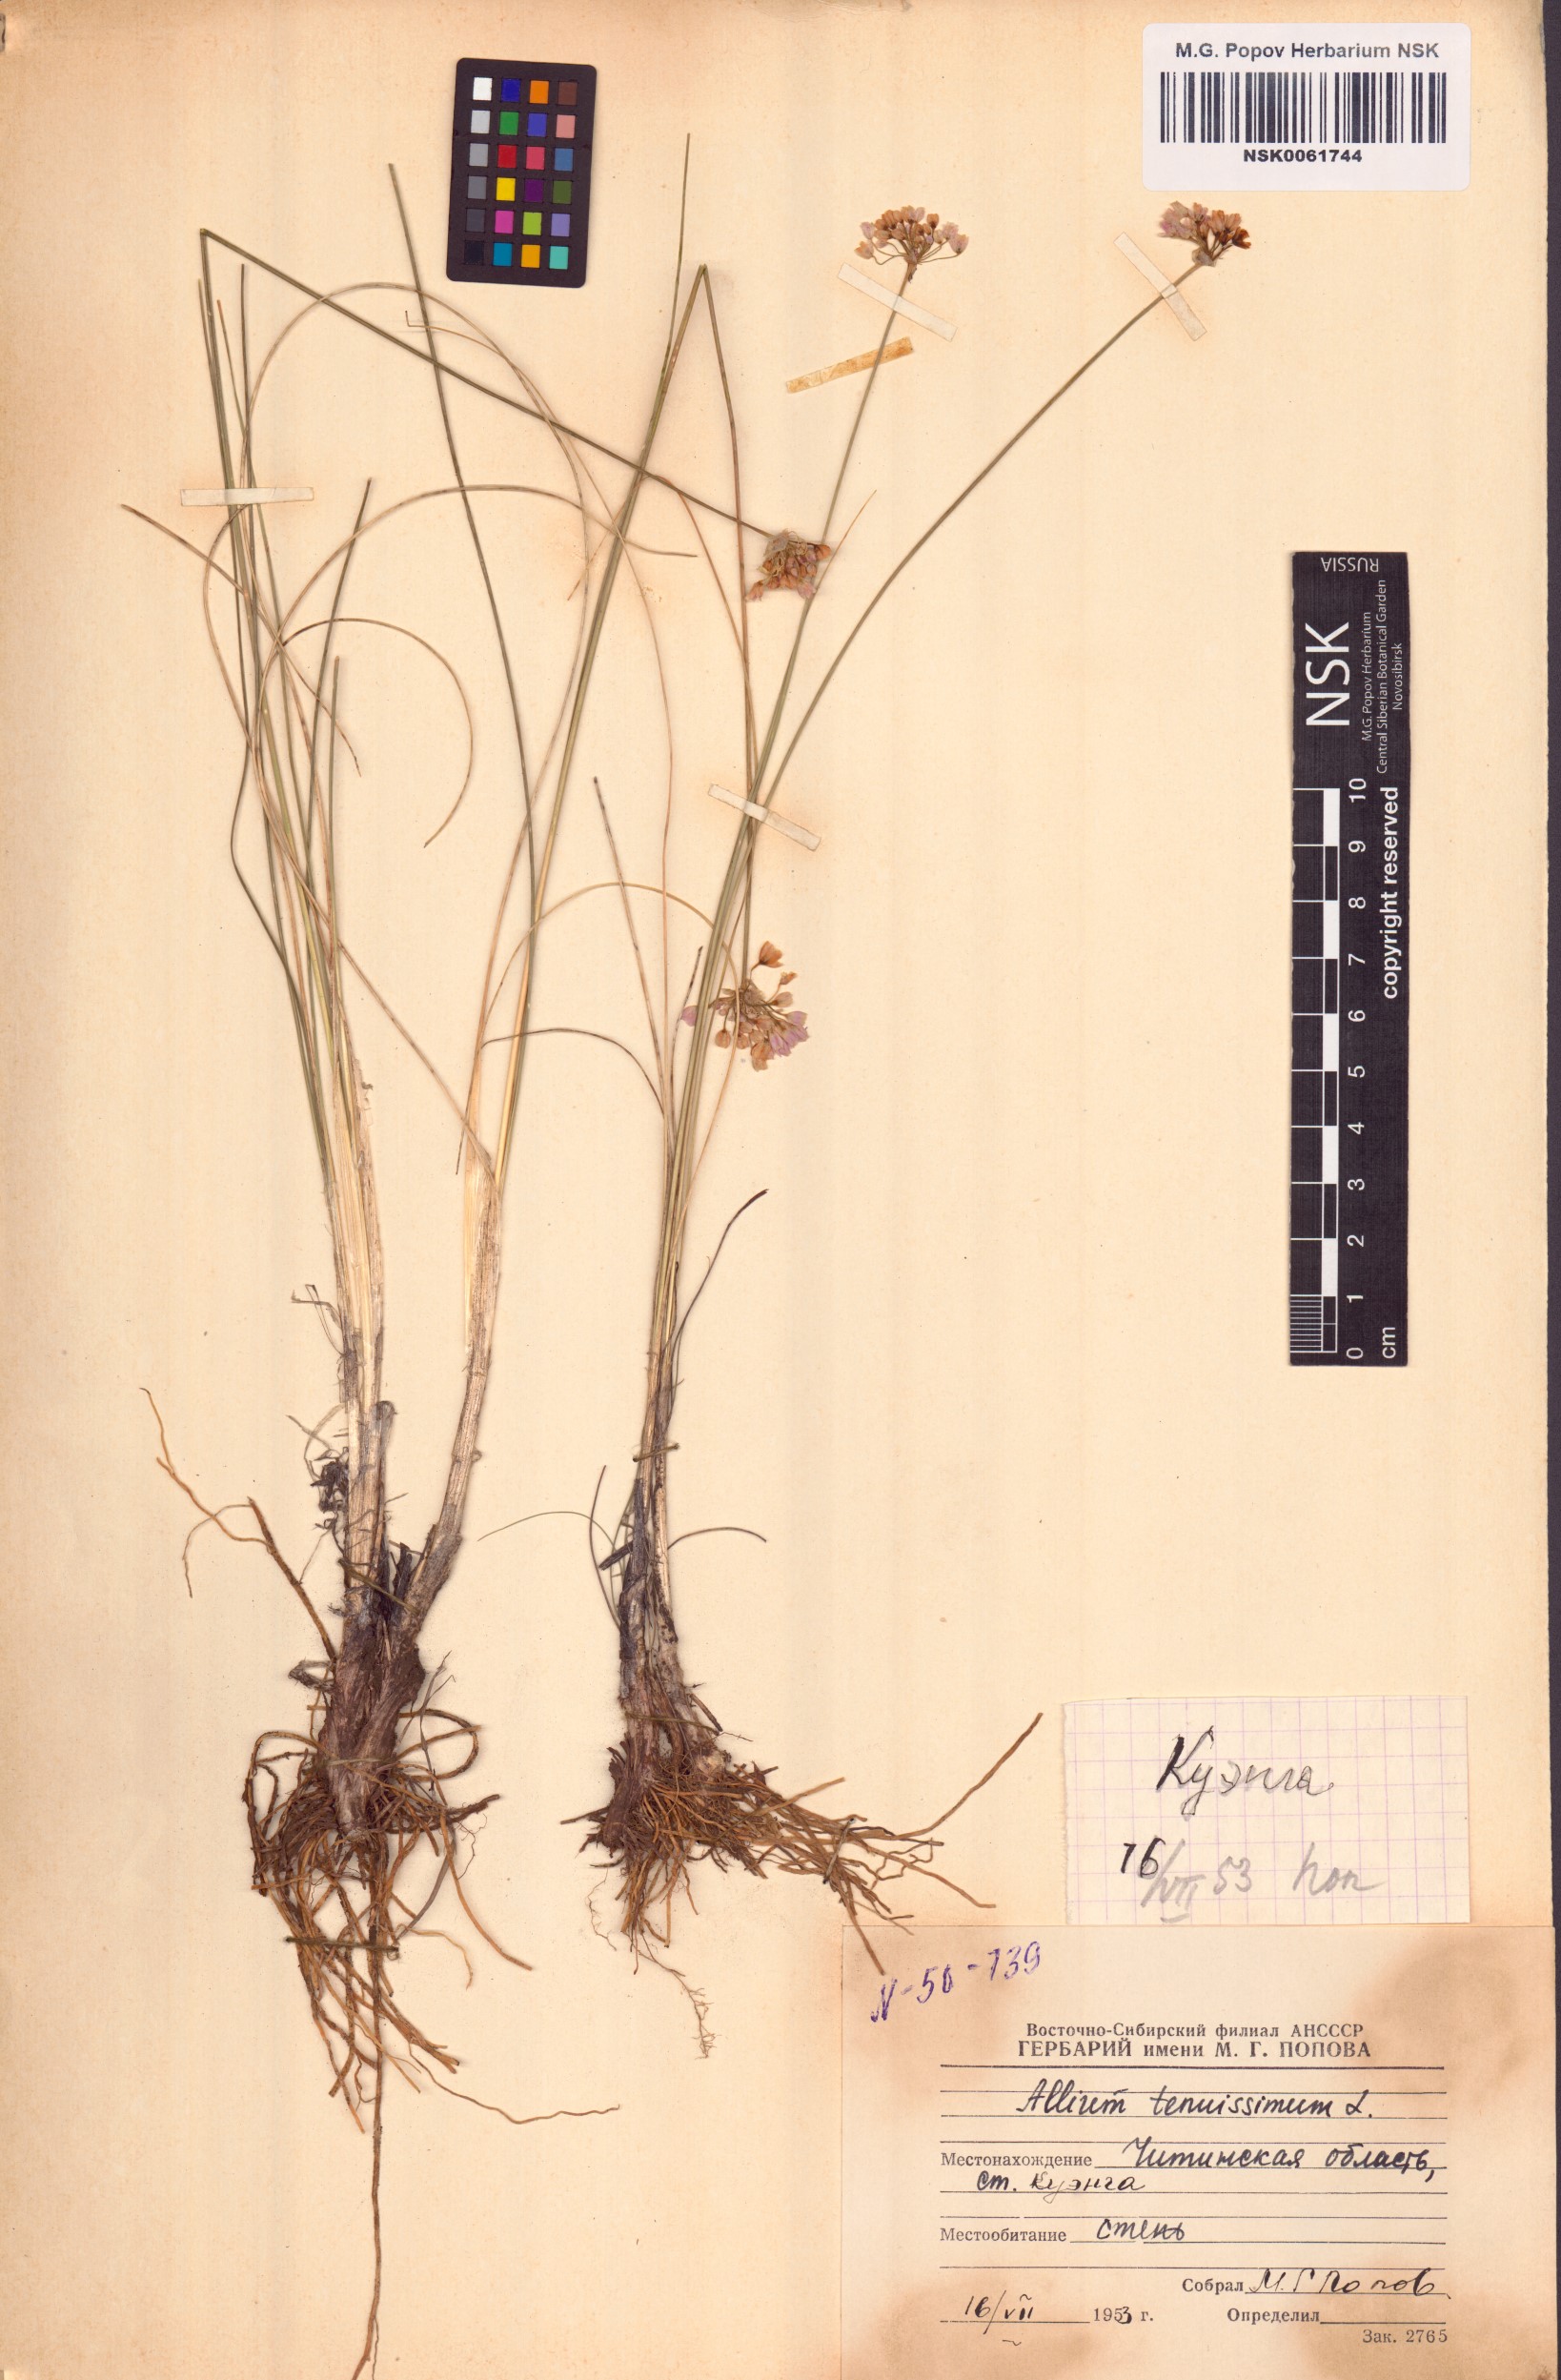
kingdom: Plantae
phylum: Tracheophyta
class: Liliopsida
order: Asparagales
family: Amaryllidaceae
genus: Allium
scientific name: Allium tenuissimum
